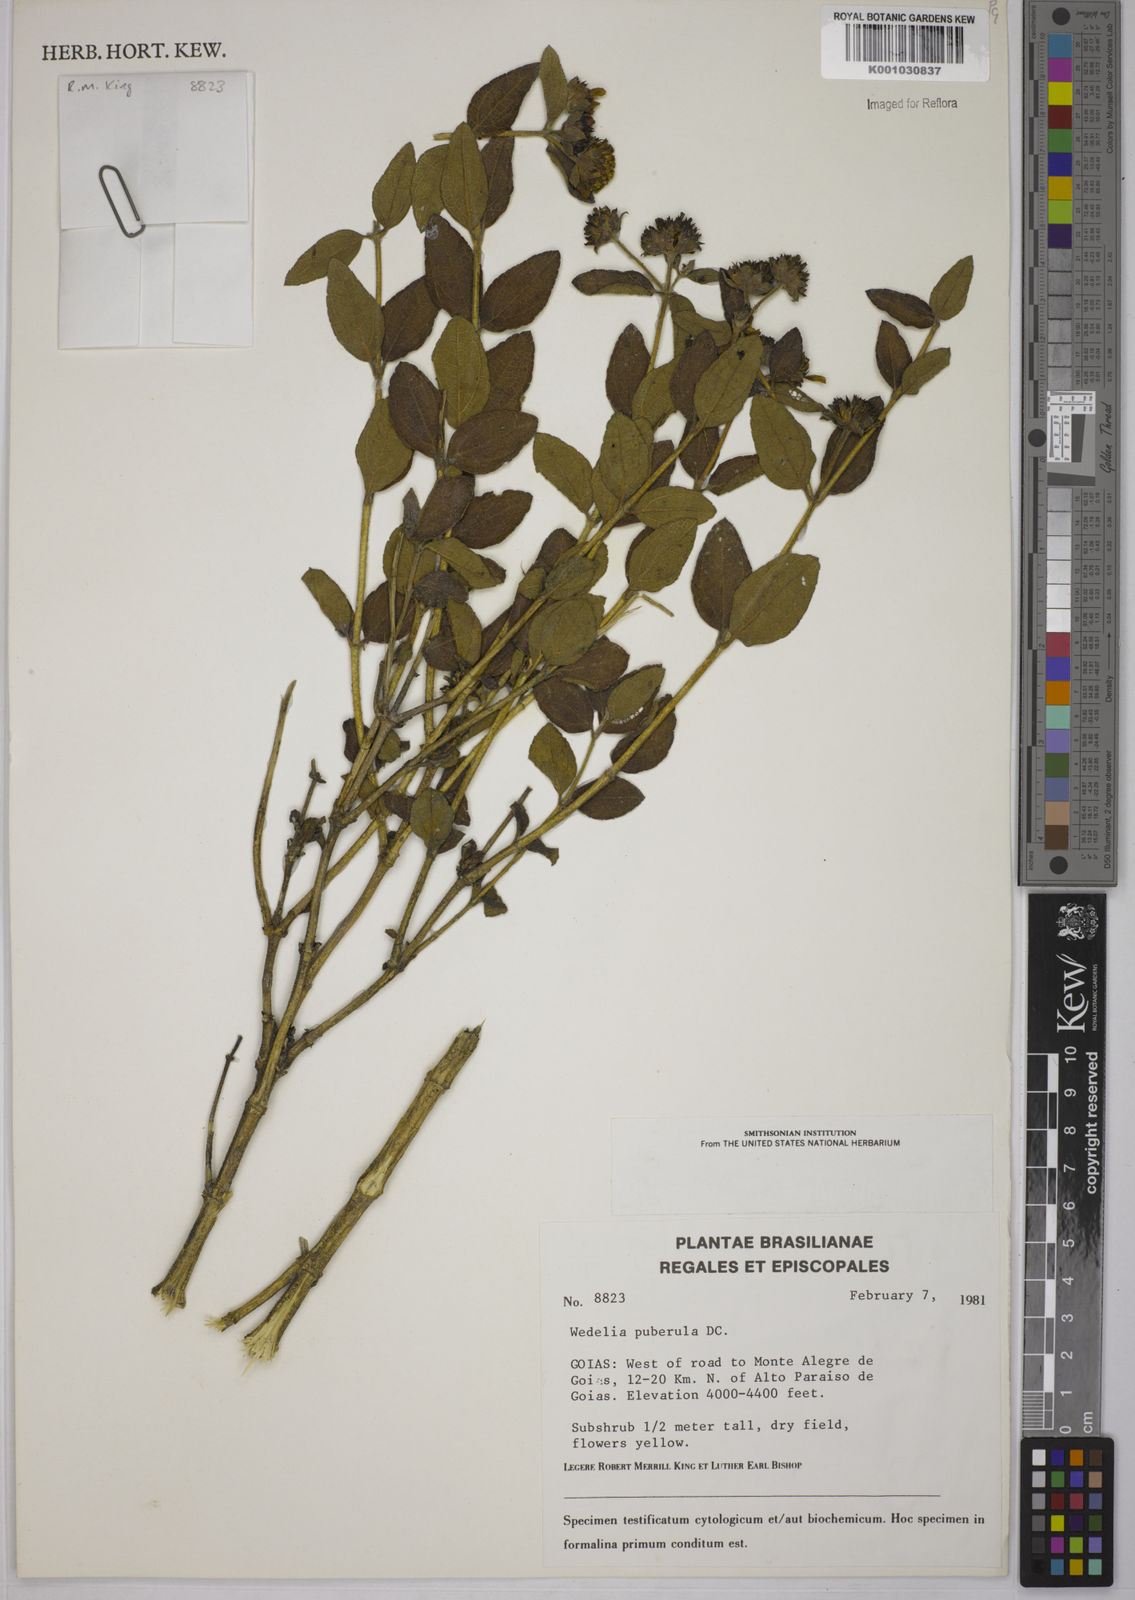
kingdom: Plantae
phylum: Tracheophyta
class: Magnoliopsida
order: Asterales
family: Asteraceae
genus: Wedelia
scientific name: Wedelia puberula
